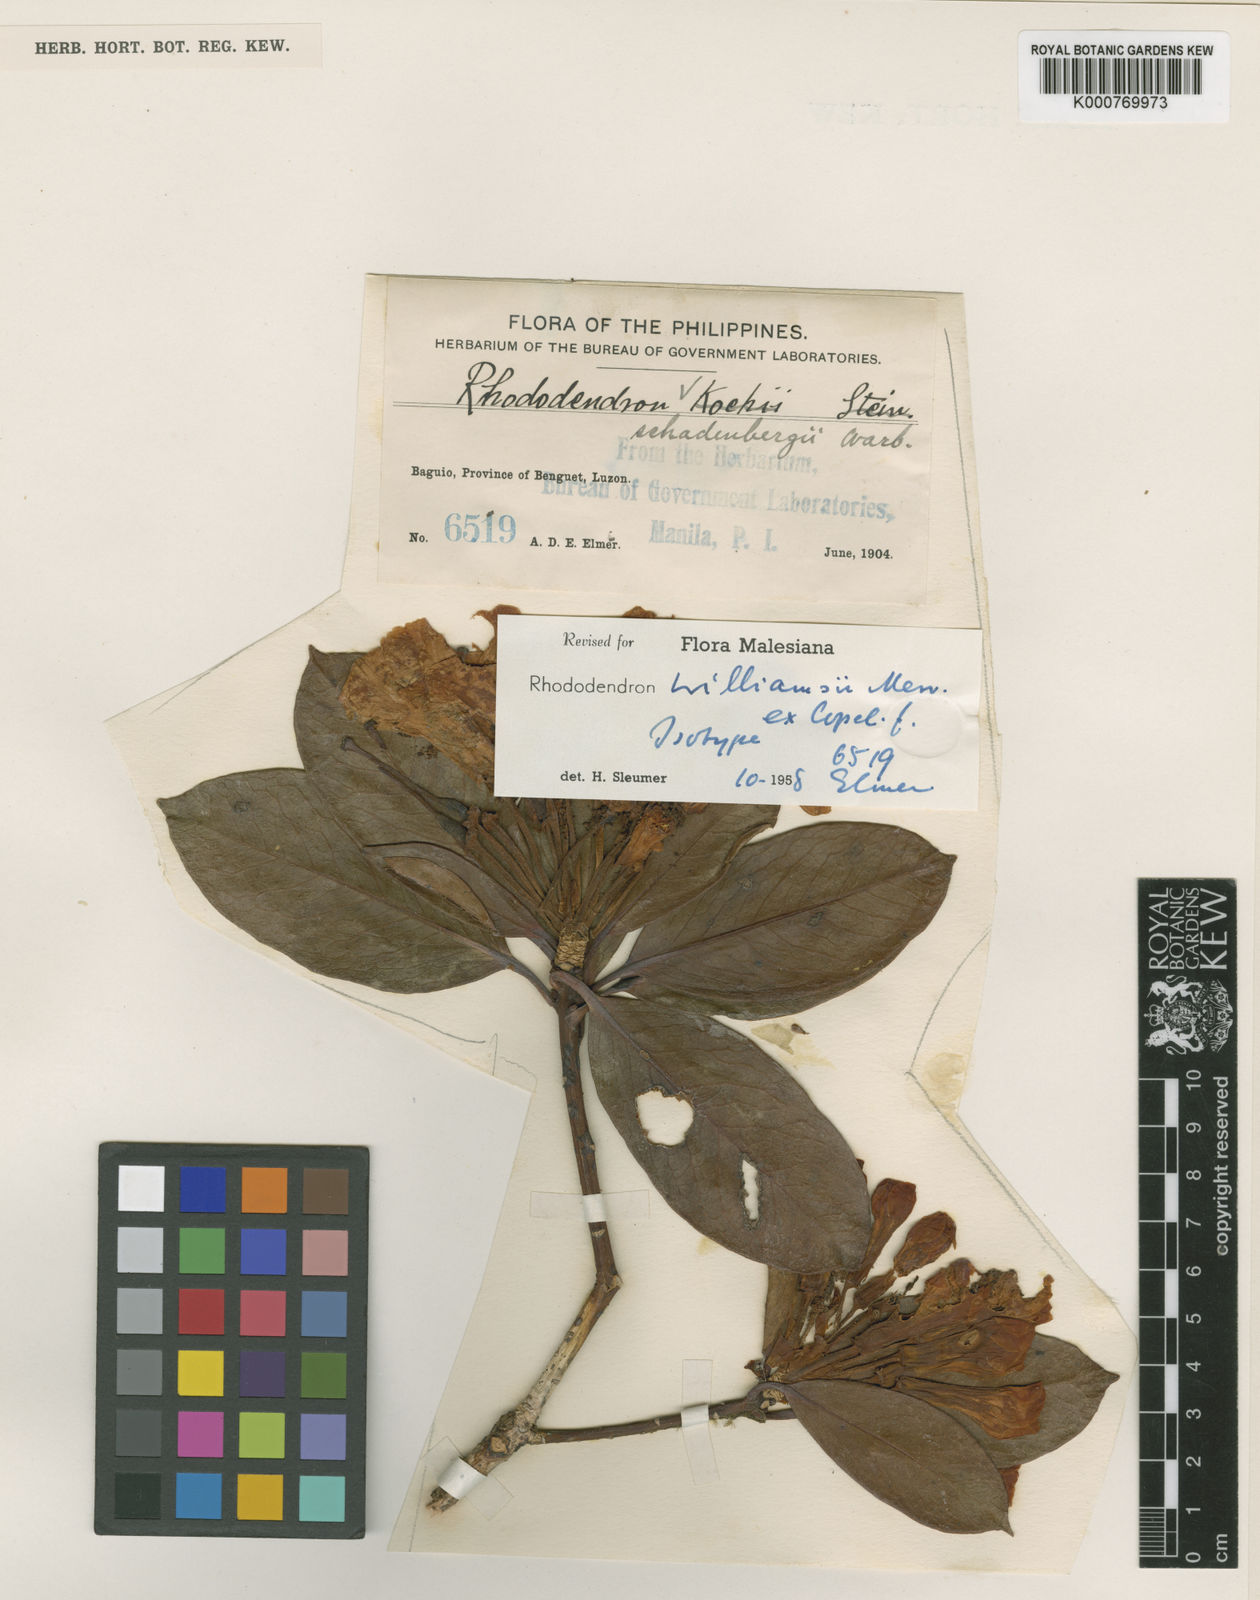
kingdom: Plantae
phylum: Tracheophyta
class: Magnoliopsida
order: Ericales
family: Ericaceae
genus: Rhododendron
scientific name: Rhododendron williamsii
